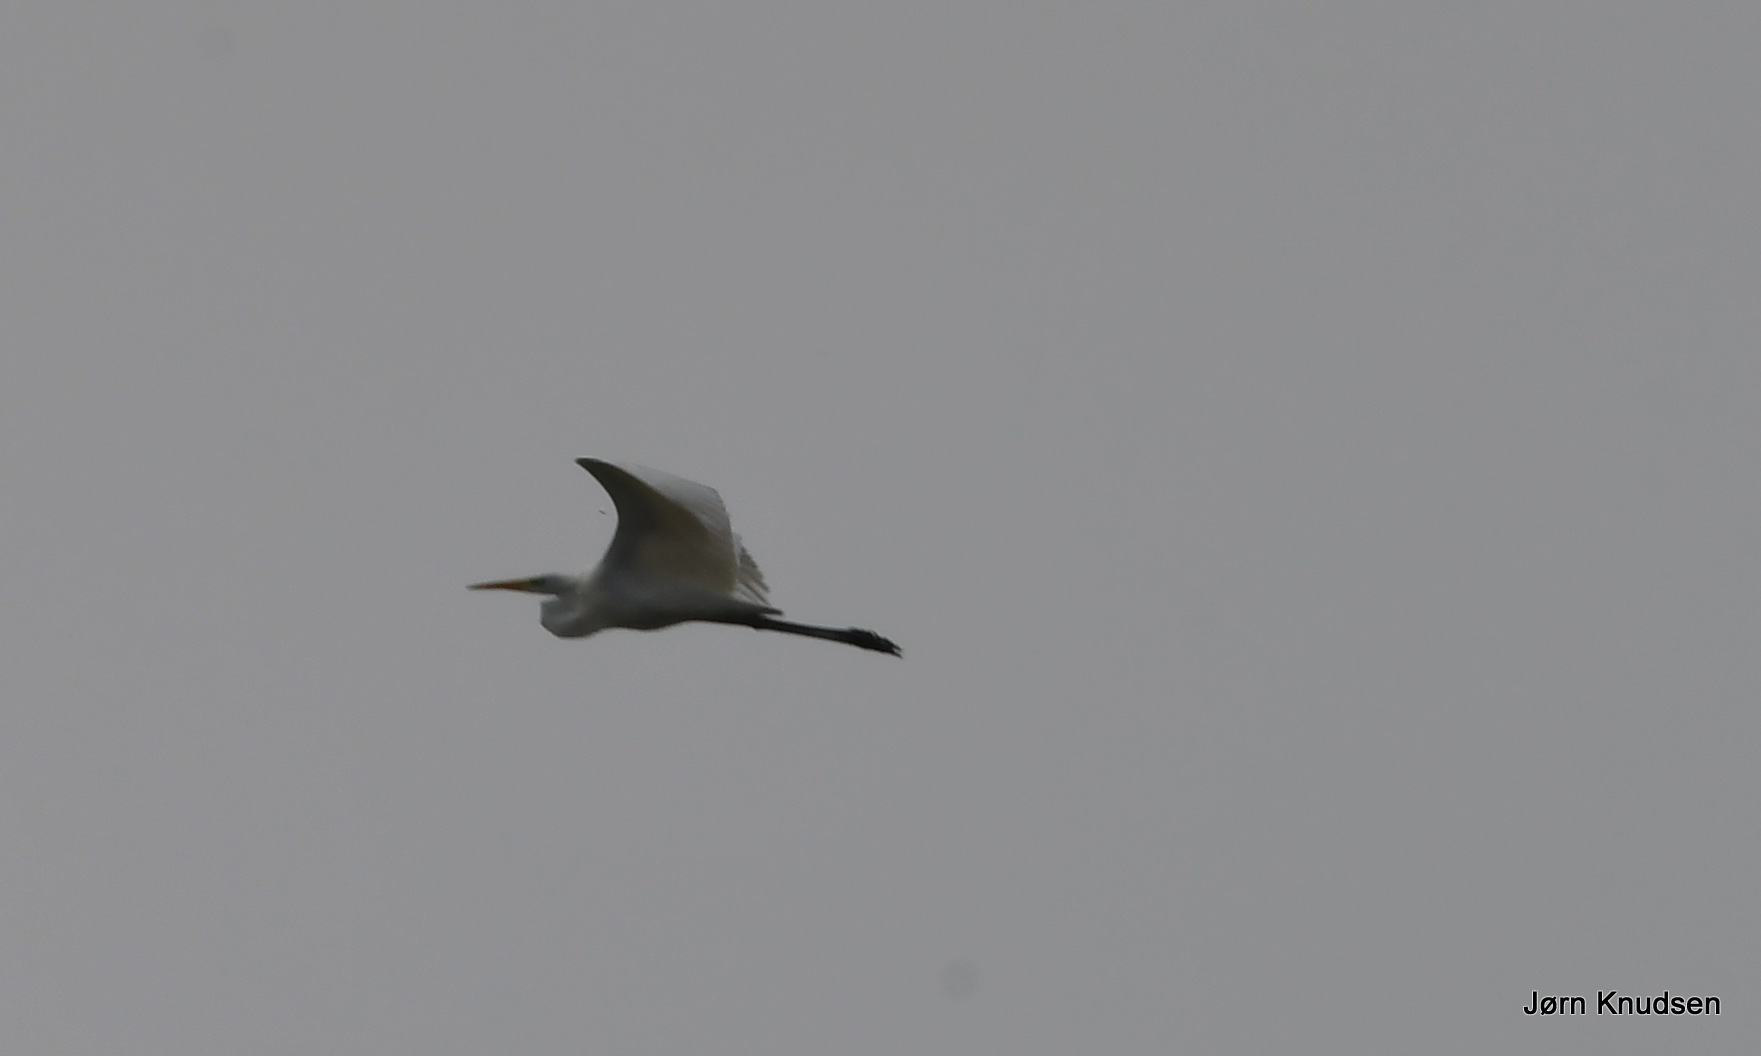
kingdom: Animalia
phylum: Chordata
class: Aves
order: Pelecaniformes
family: Ardeidae
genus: Ardea
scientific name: Ardea alba
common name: Sølvhejre
